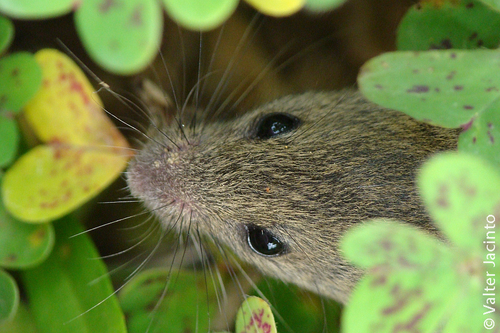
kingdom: Animalia
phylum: Chordata
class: Mammalia
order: Rodentia
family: Muridae
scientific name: Muridae
